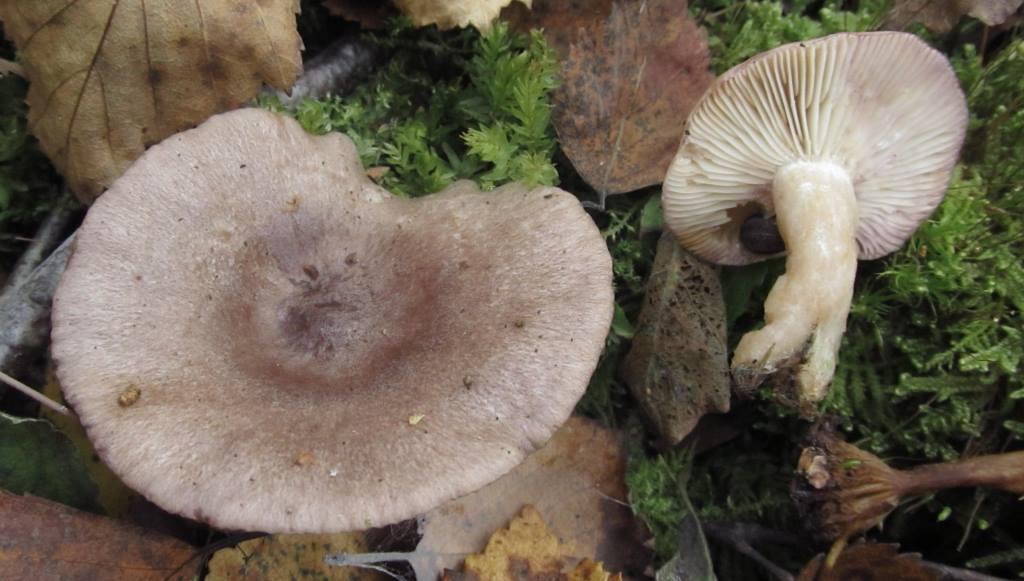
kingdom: Fungi
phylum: Basidiomycota
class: Agaricomycetes
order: Russulales
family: Russulaceae
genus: Lactarius
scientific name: Lactarius uvidus
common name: violetkødet mælkehat
